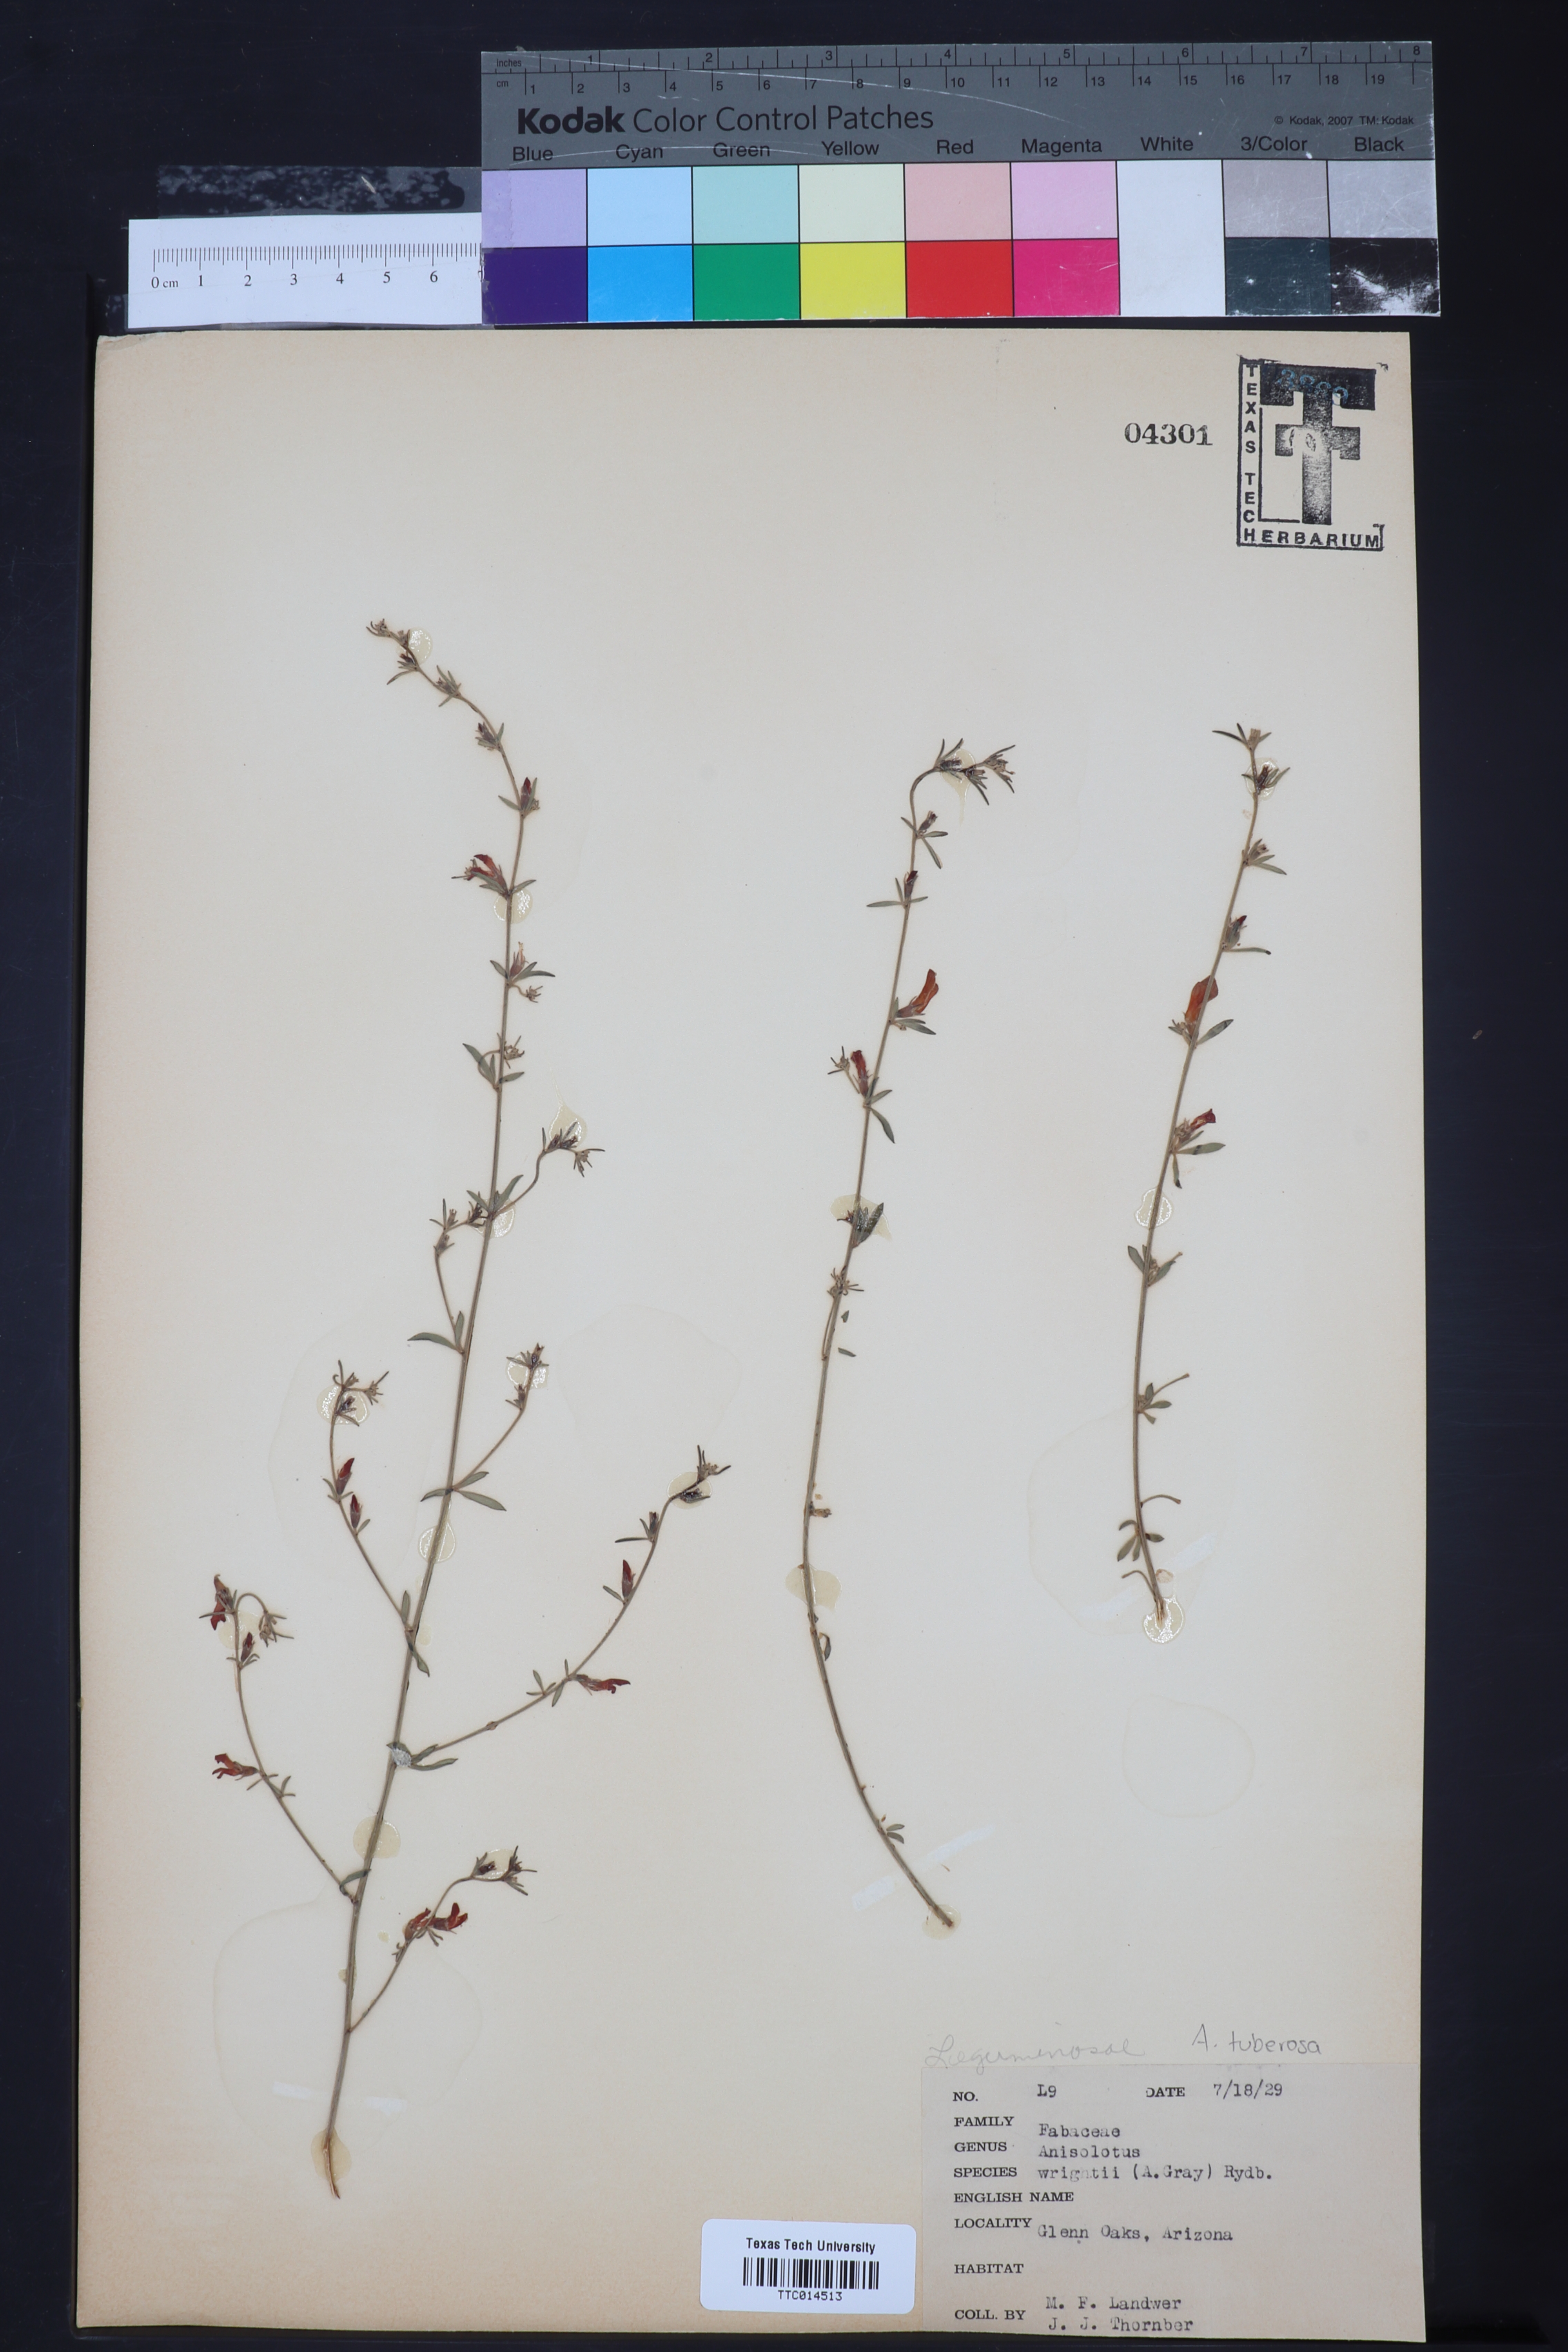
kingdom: Plantae
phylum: Tracheophyta
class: Magnoliopsida
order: Fabales
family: Fabaceae
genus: Acmispon
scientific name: Acmispon wrightii
